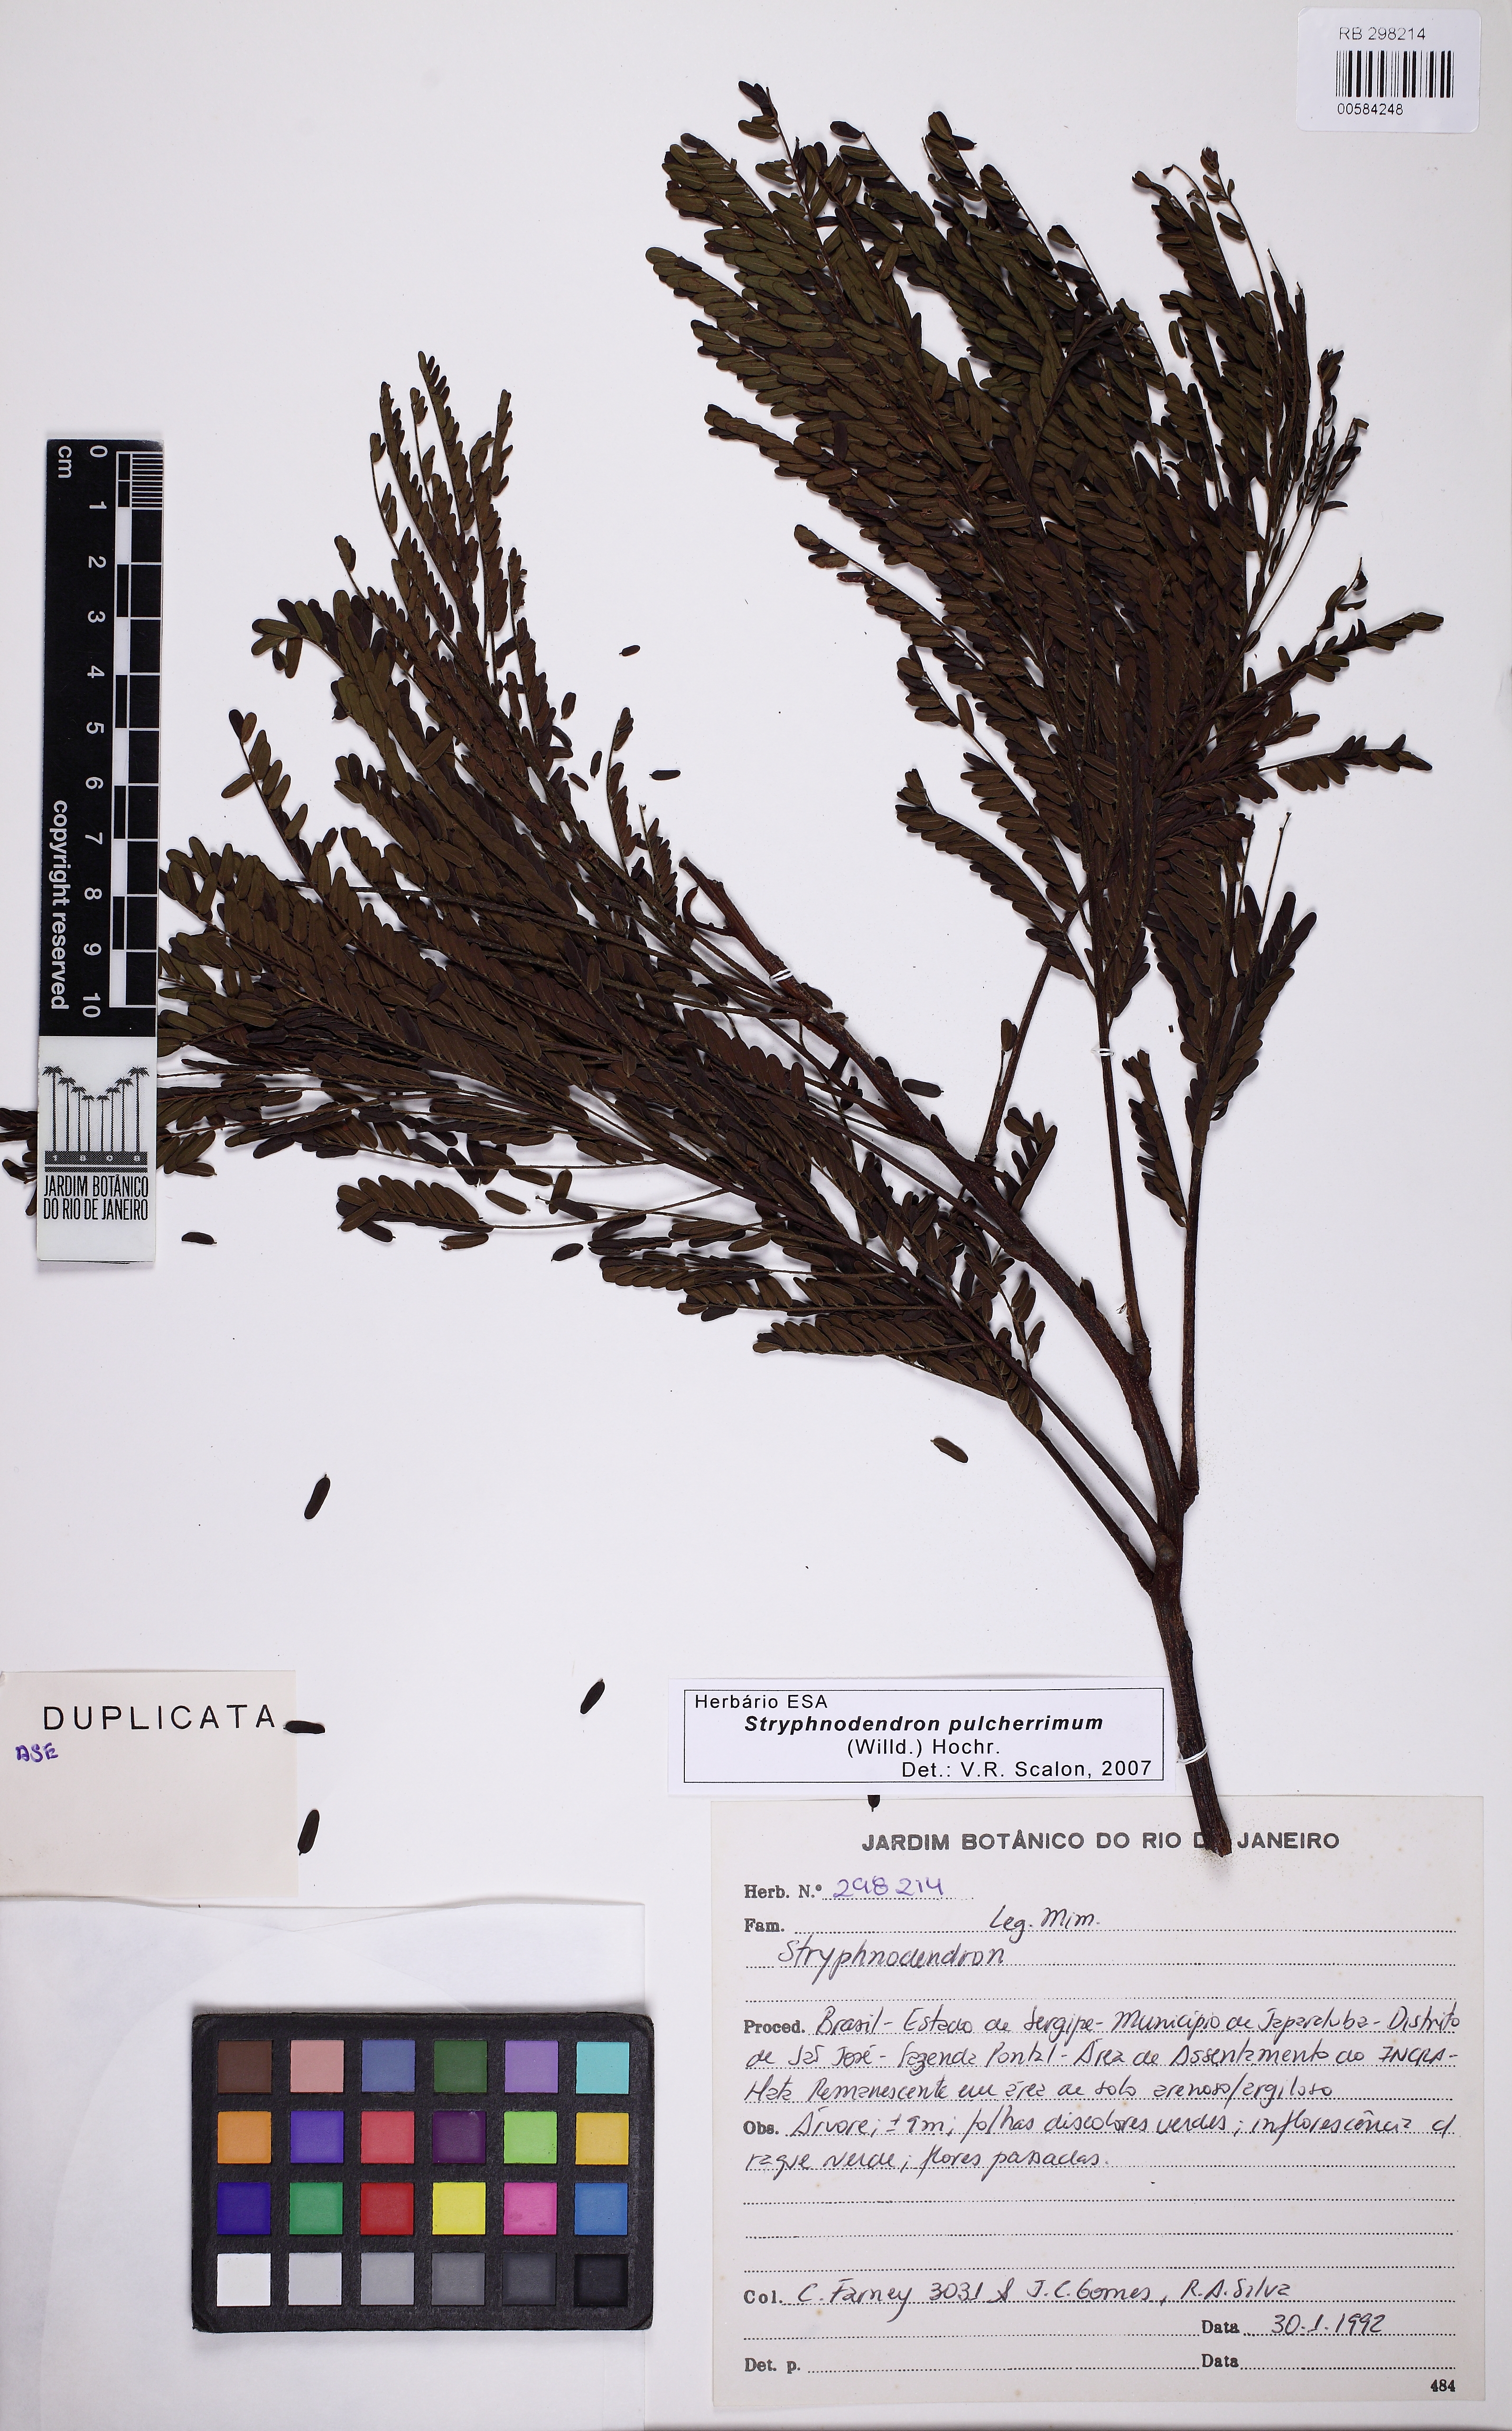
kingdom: Plantae
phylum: Tracheophyta
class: Magnoliopsida
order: Fabales
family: Fabaceae
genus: Stryphnodendron
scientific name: Stryphnodendron pulcherrimum
